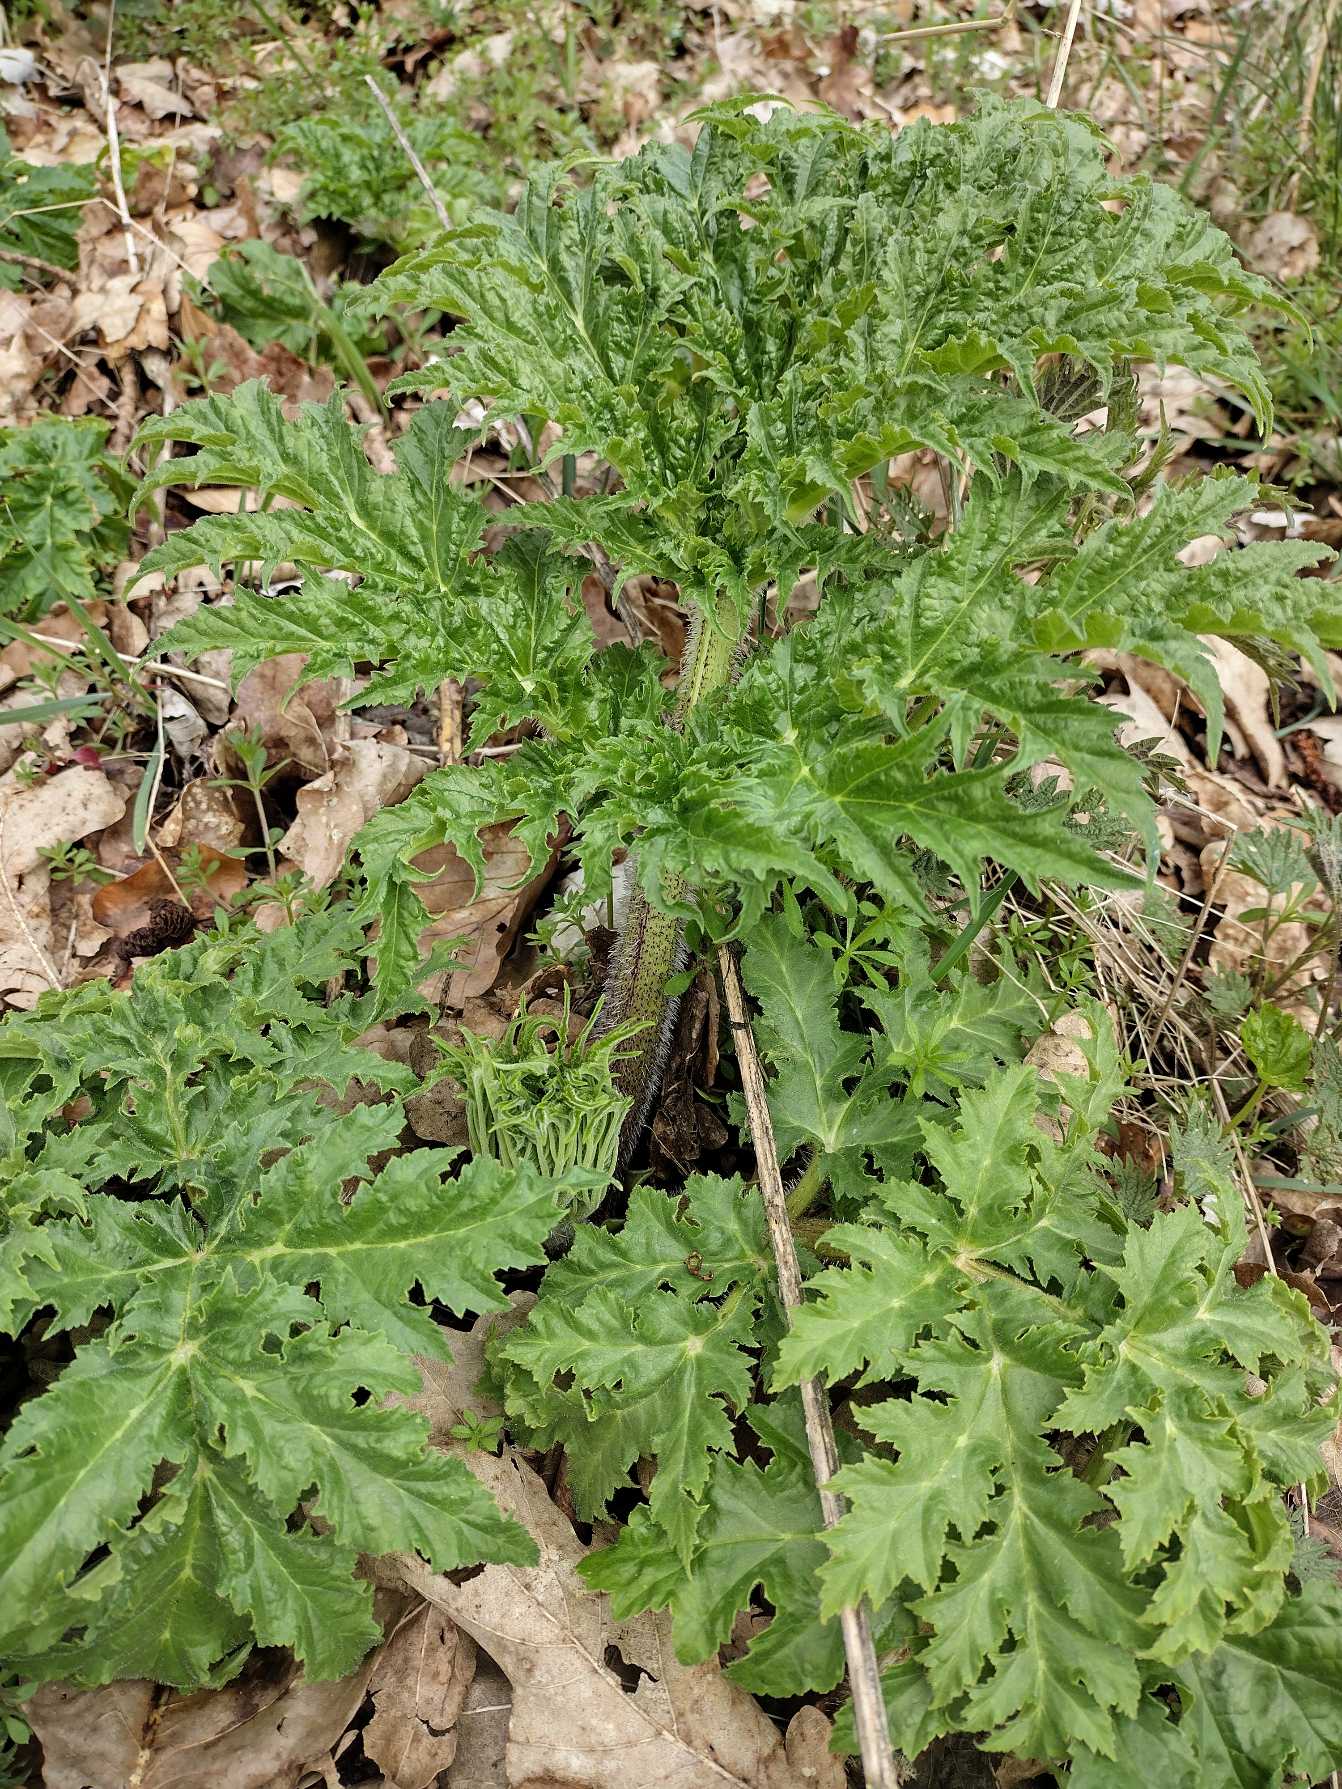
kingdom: Plantae
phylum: Tracheophyta
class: Magnoliopsida
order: Apiales
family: Apiaceae
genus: Heracleum
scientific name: Heracleum mantegazzianum
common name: Kæmpe-bjørneklo
